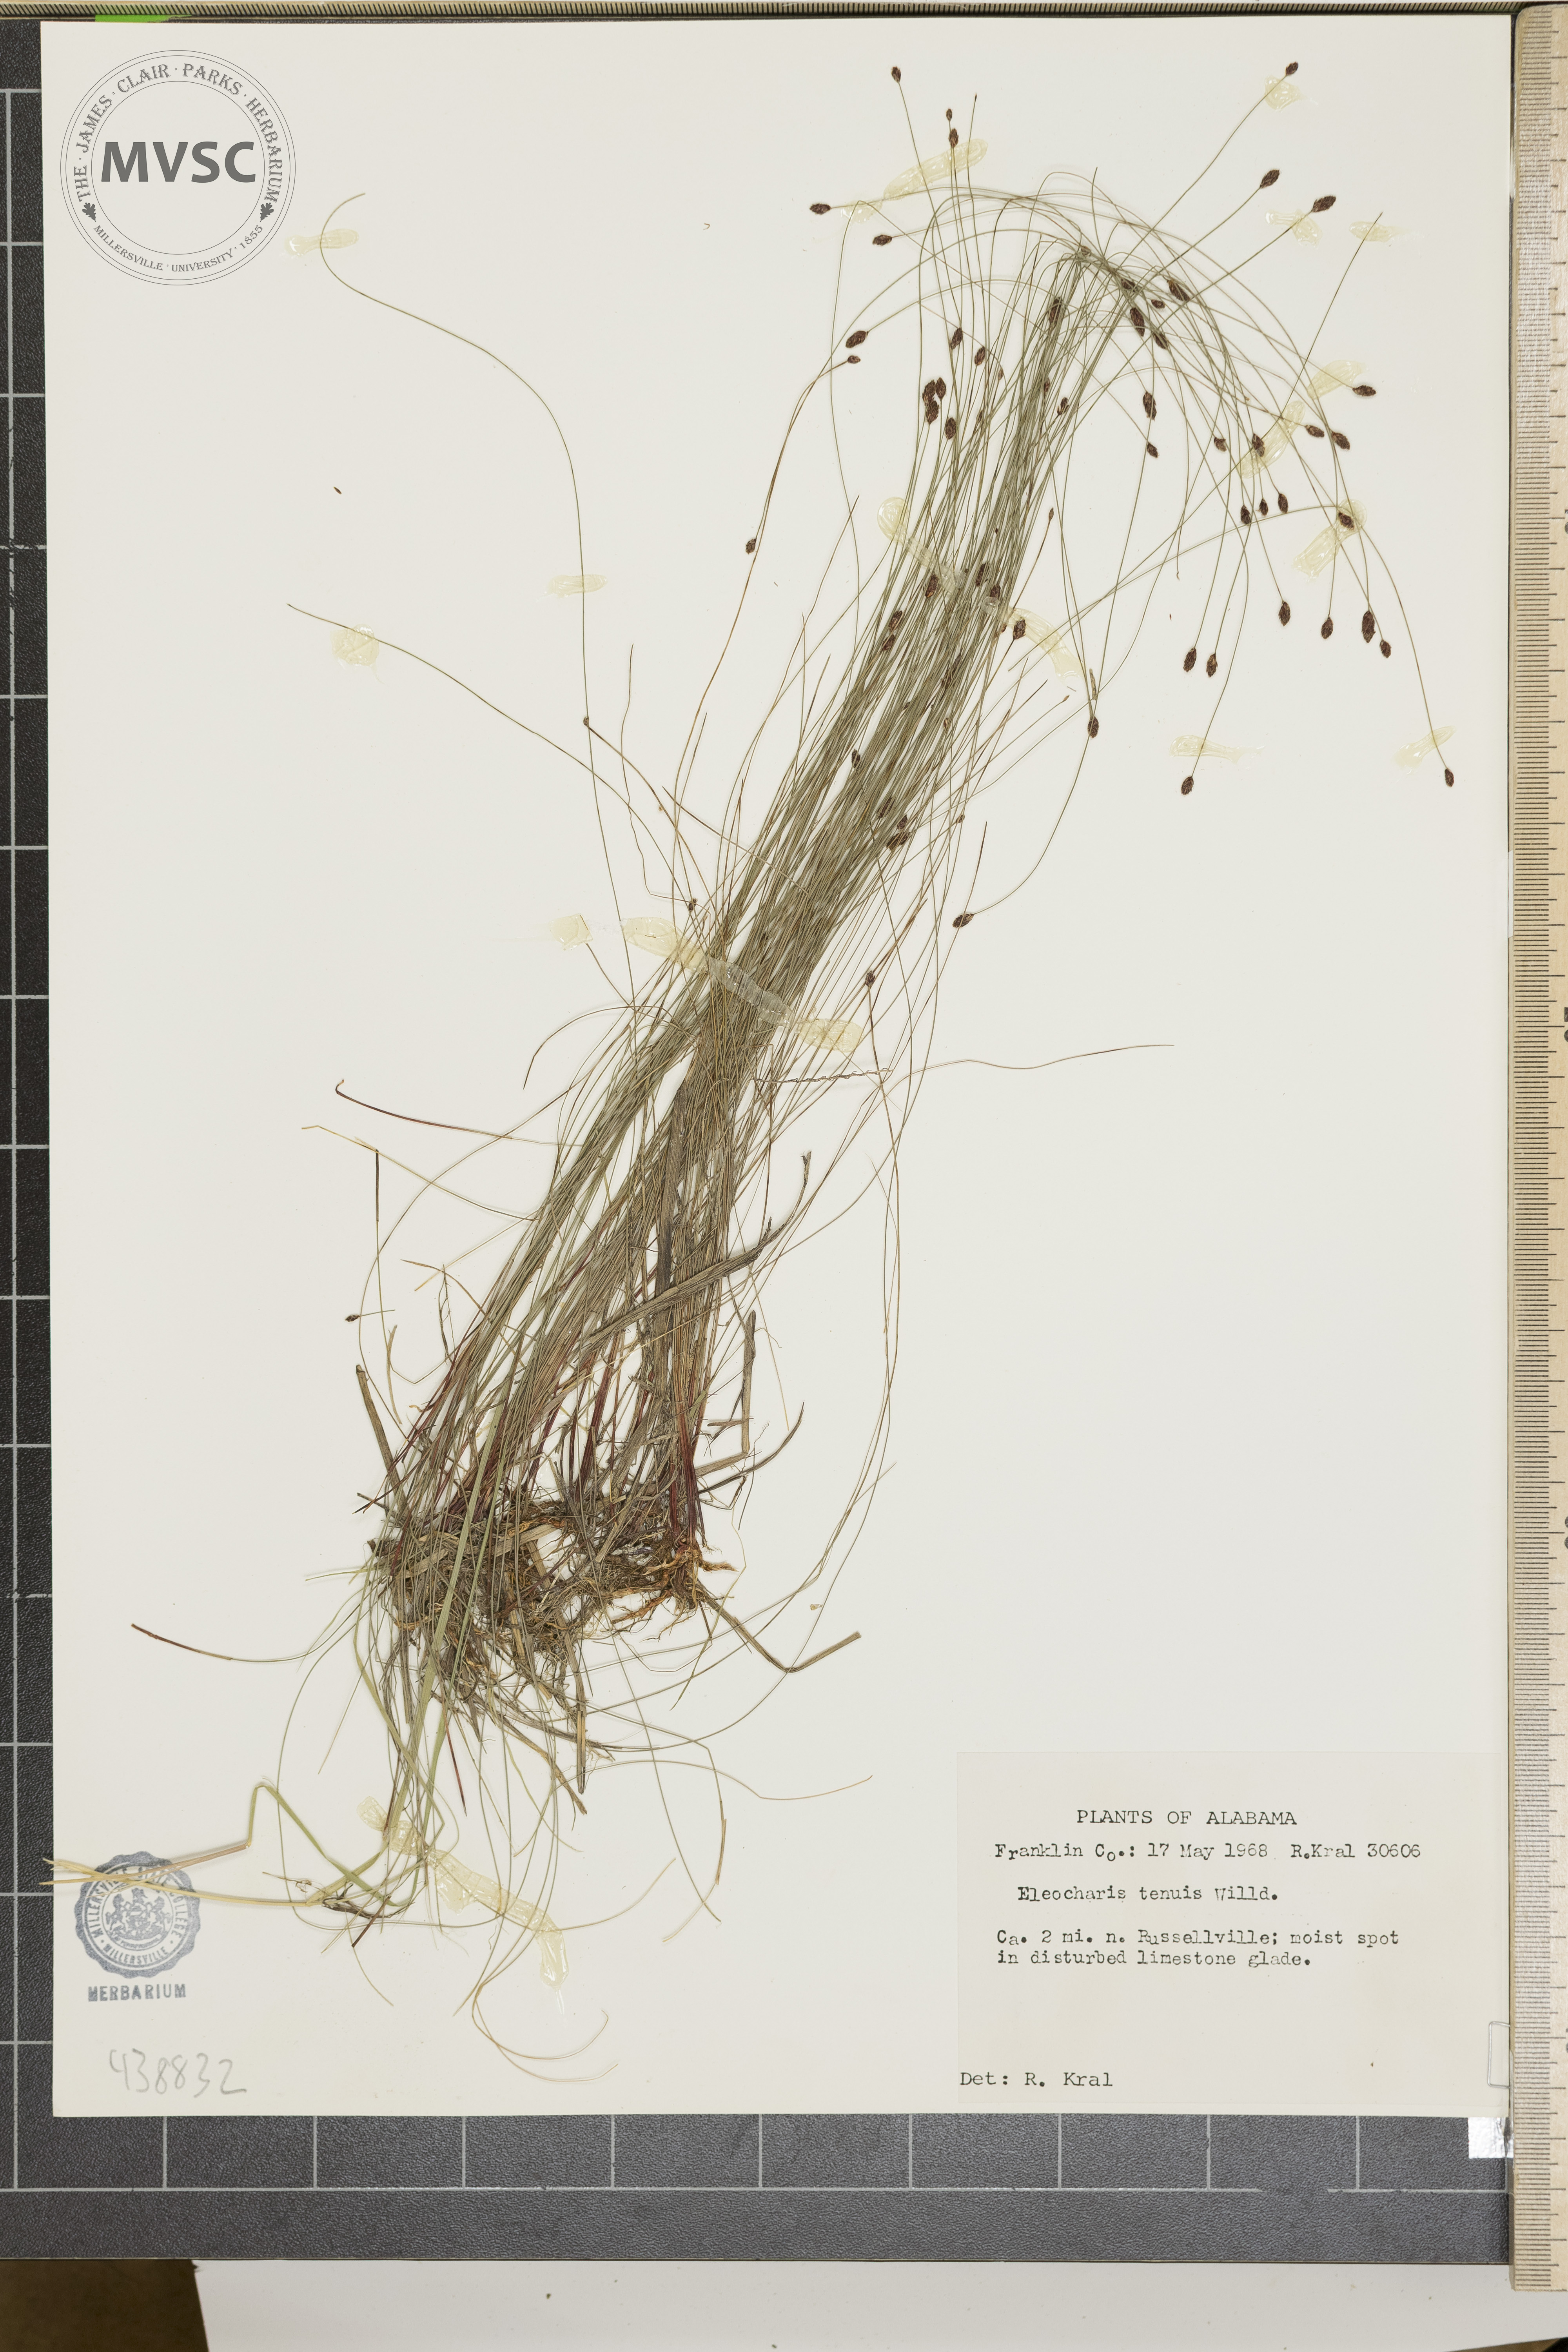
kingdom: Plantae
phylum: Tracheophyta
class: Liliopsida
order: Poales
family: Cyperaceae
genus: Eleocharis
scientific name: Eleocharis tenuis
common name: Dog's hair
